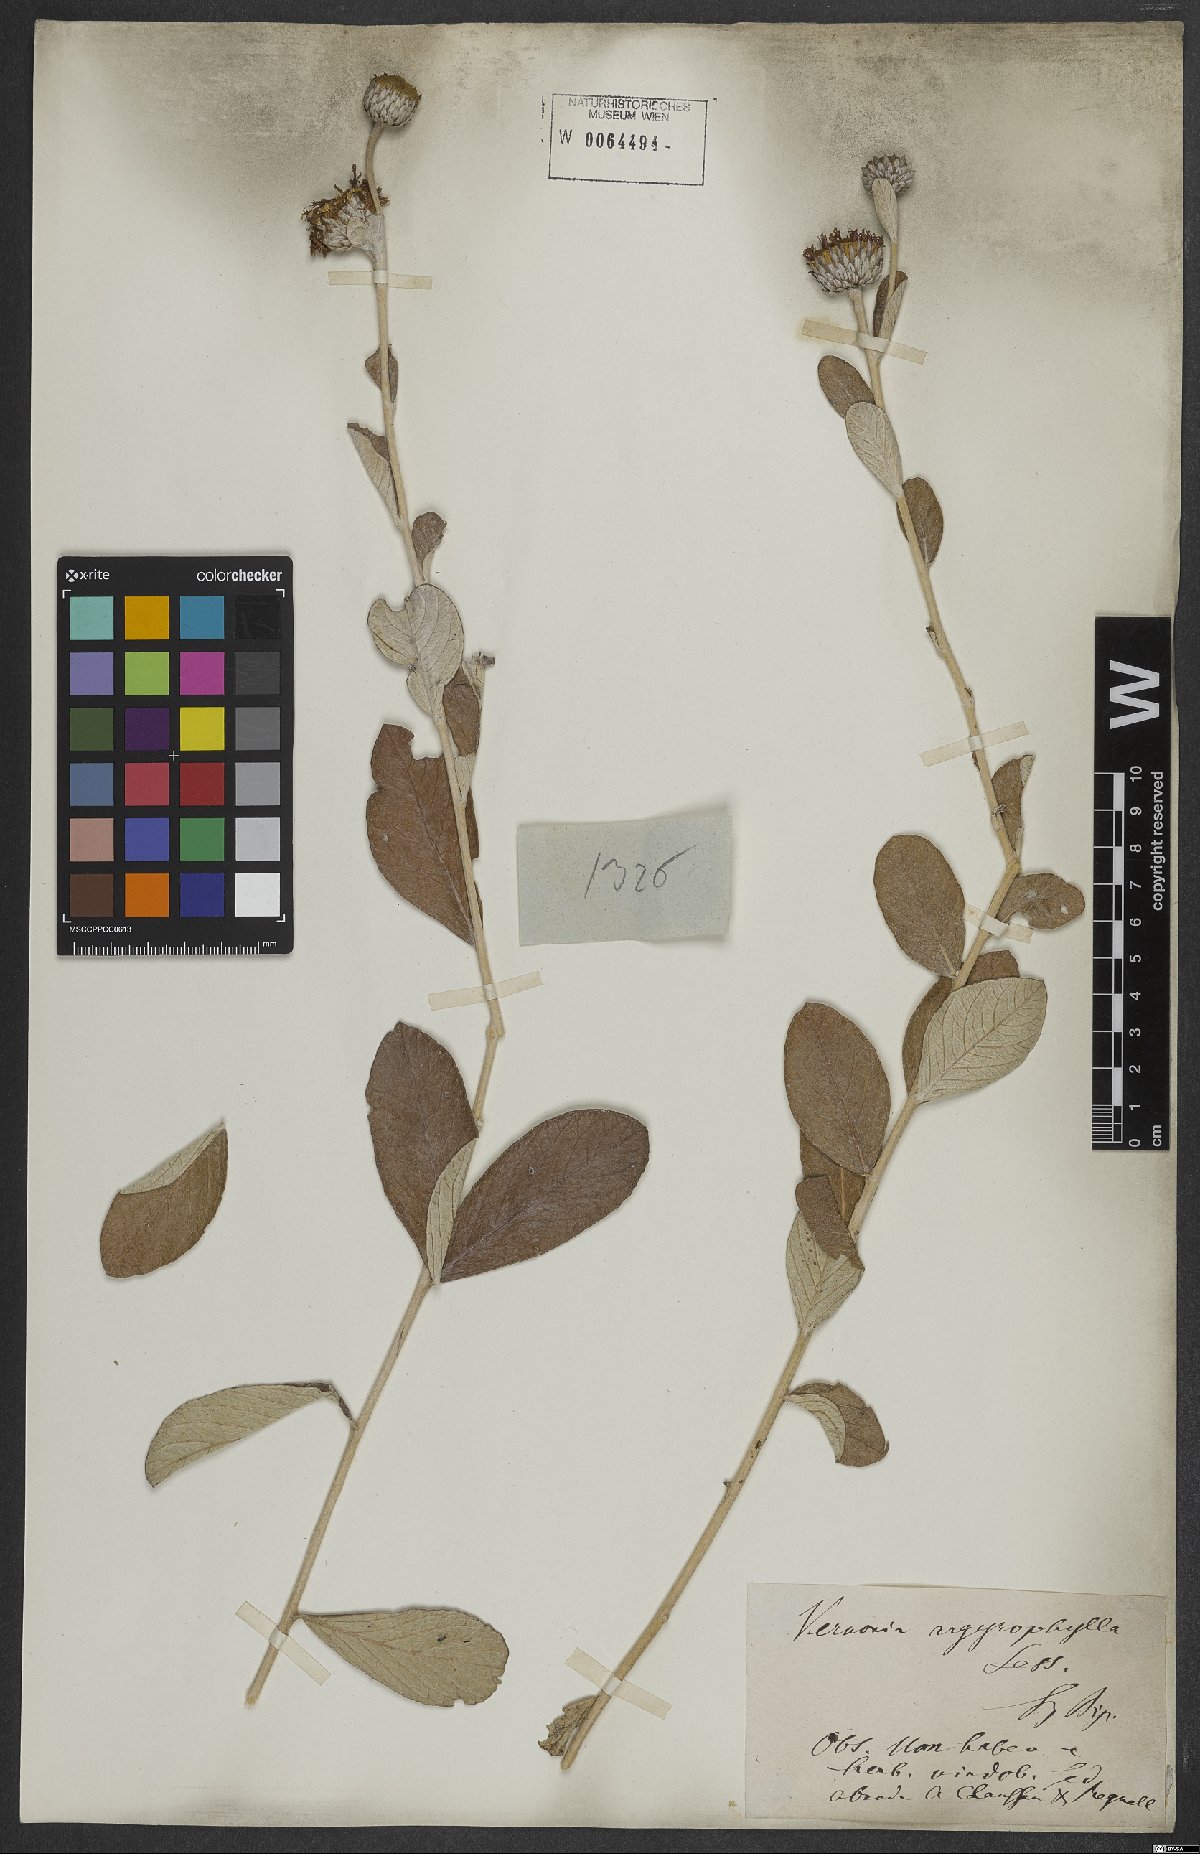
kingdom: Plantae
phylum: Tracheophyta
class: Magnoliopsida
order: Asterales
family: Asteraceae
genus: Lessingianthus
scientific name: Lessingianthus argyrophyllus
